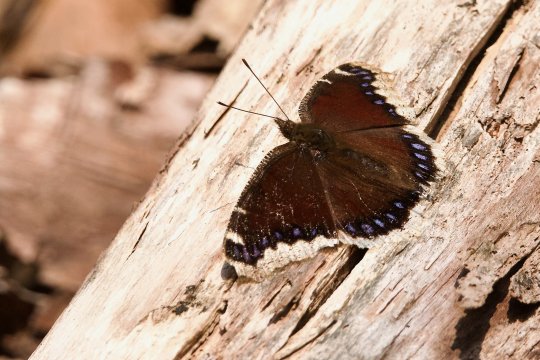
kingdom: Animalia
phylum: Arthropoda
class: Insecta
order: Lepidoptera
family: Nymphalidae
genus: Nymphalis
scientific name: Nymphalis antiopa
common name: Mourning Cloak
